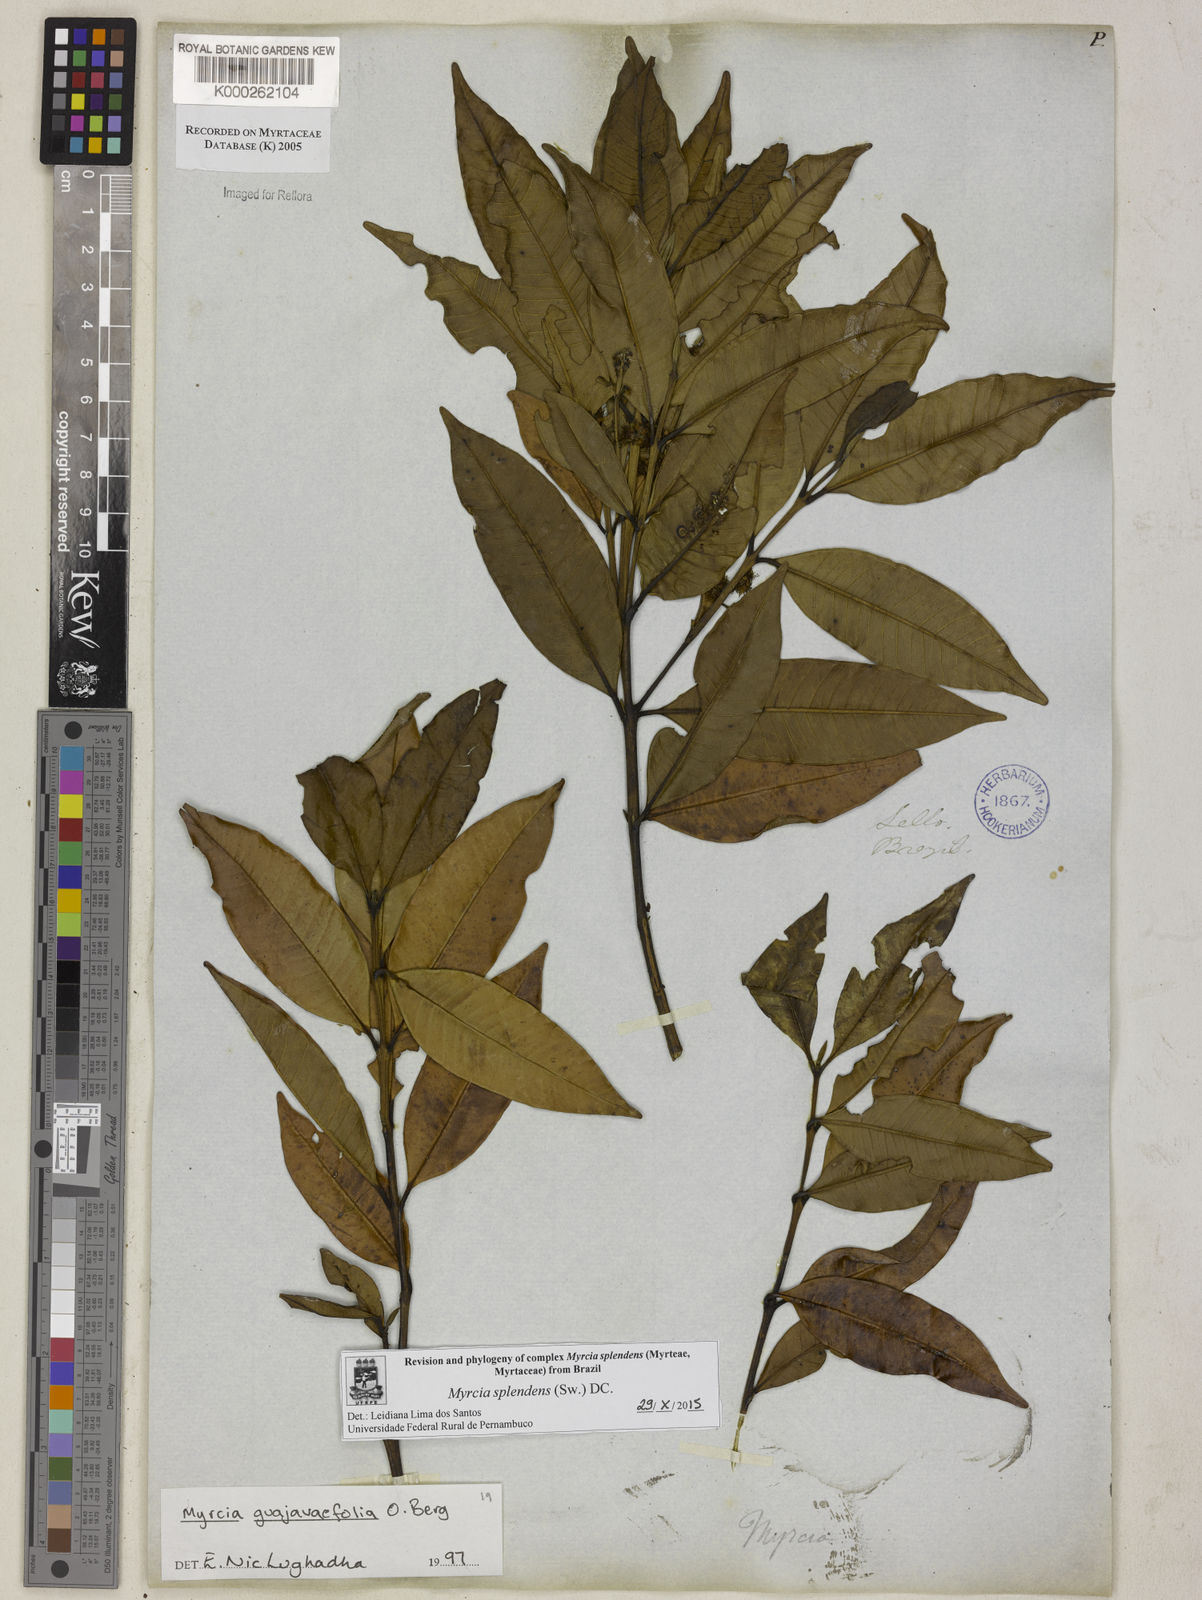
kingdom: Plantae
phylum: Tracheophyta
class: Magnoliopsida
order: Myrtales
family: Myrtaceae
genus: Myrcia
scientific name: Myrcia splendens
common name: Surinam cherry
